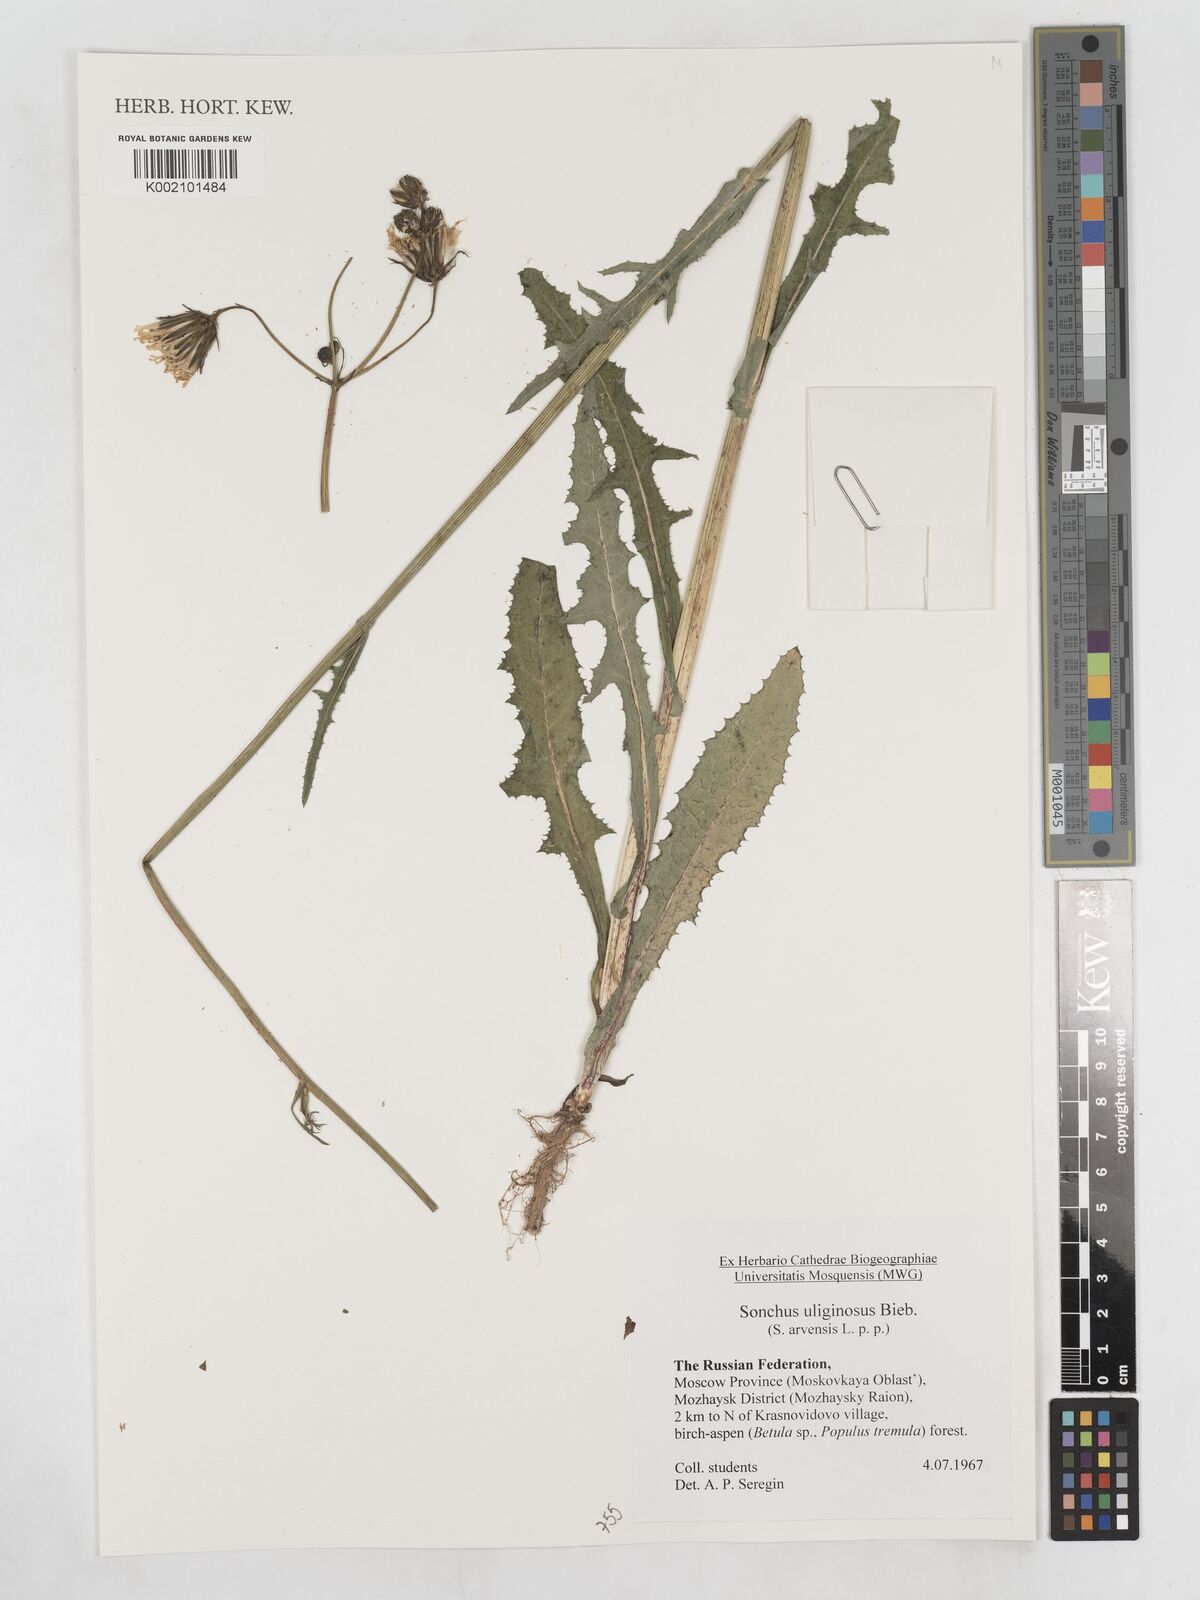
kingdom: Plantae
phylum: Tracheophyta
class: Magnoliopsida
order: Asterales
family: Asteraceae
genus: Sonchus
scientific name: Sonchus arvensis
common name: Perennial sow-thistle
